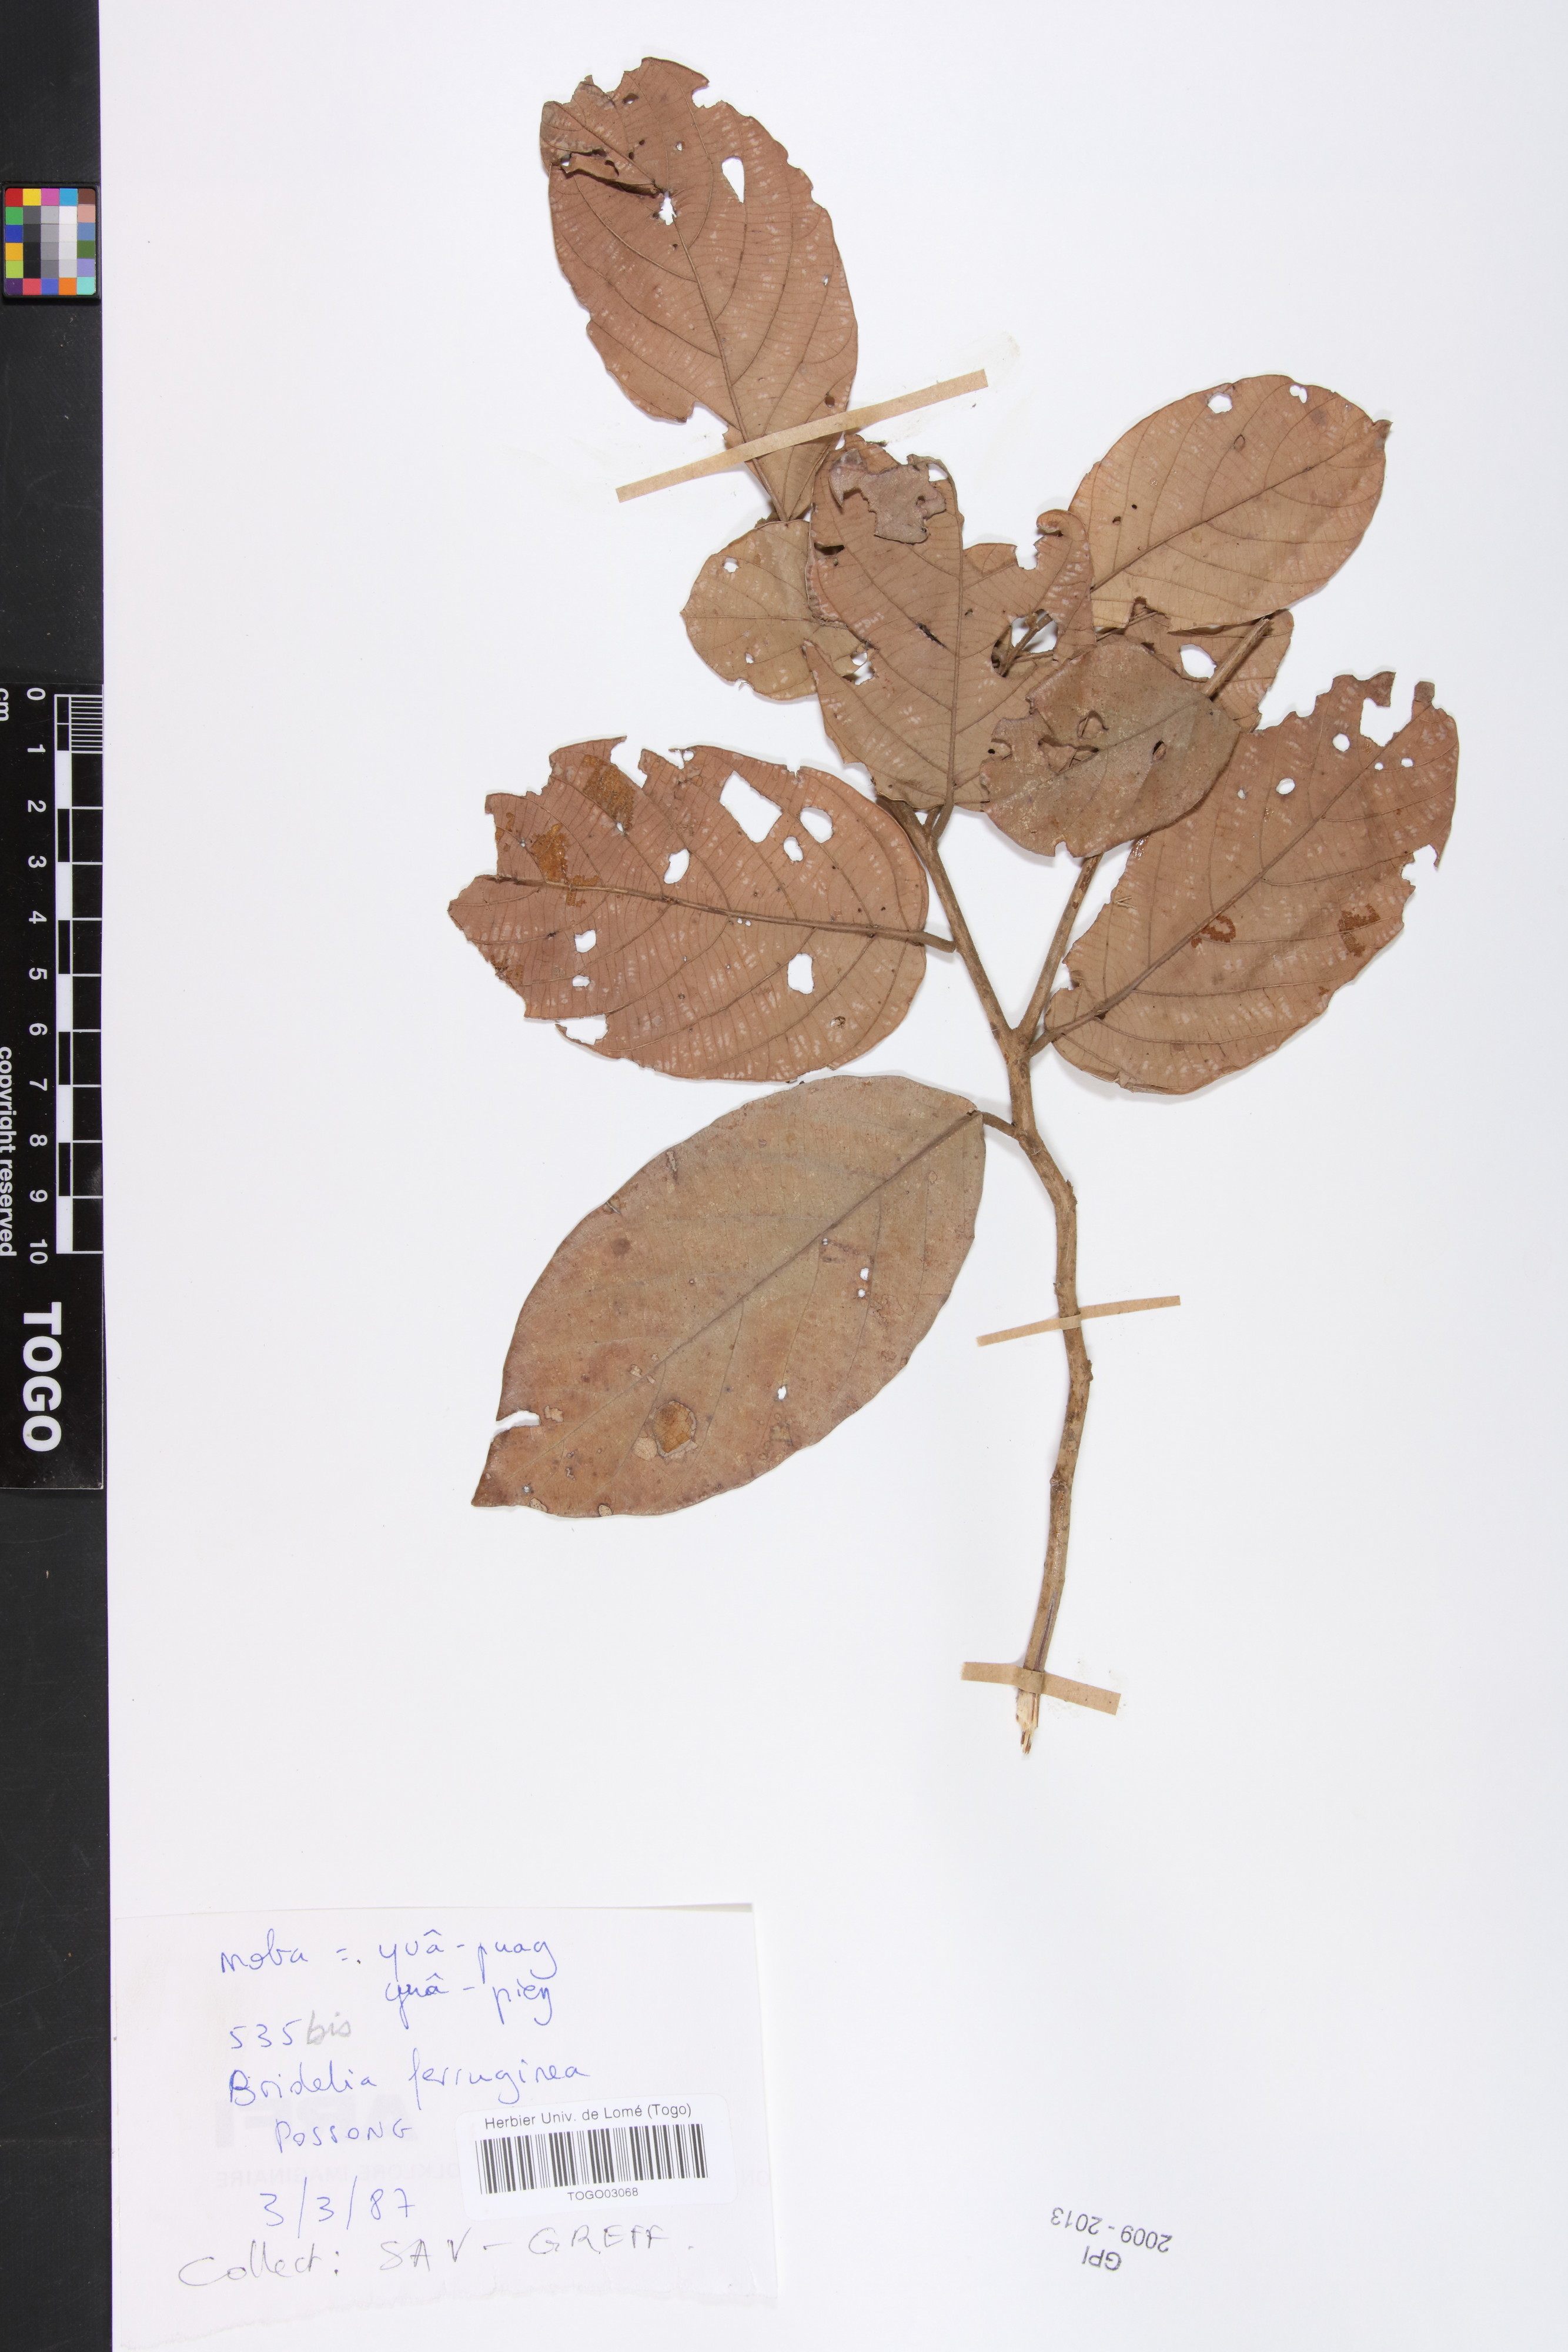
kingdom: Plantae
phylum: Tracheophyta
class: Magnoliopsida
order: Malpighiales
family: Phyllanthaceae
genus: Bridelia
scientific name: Bridelia ferruginea
